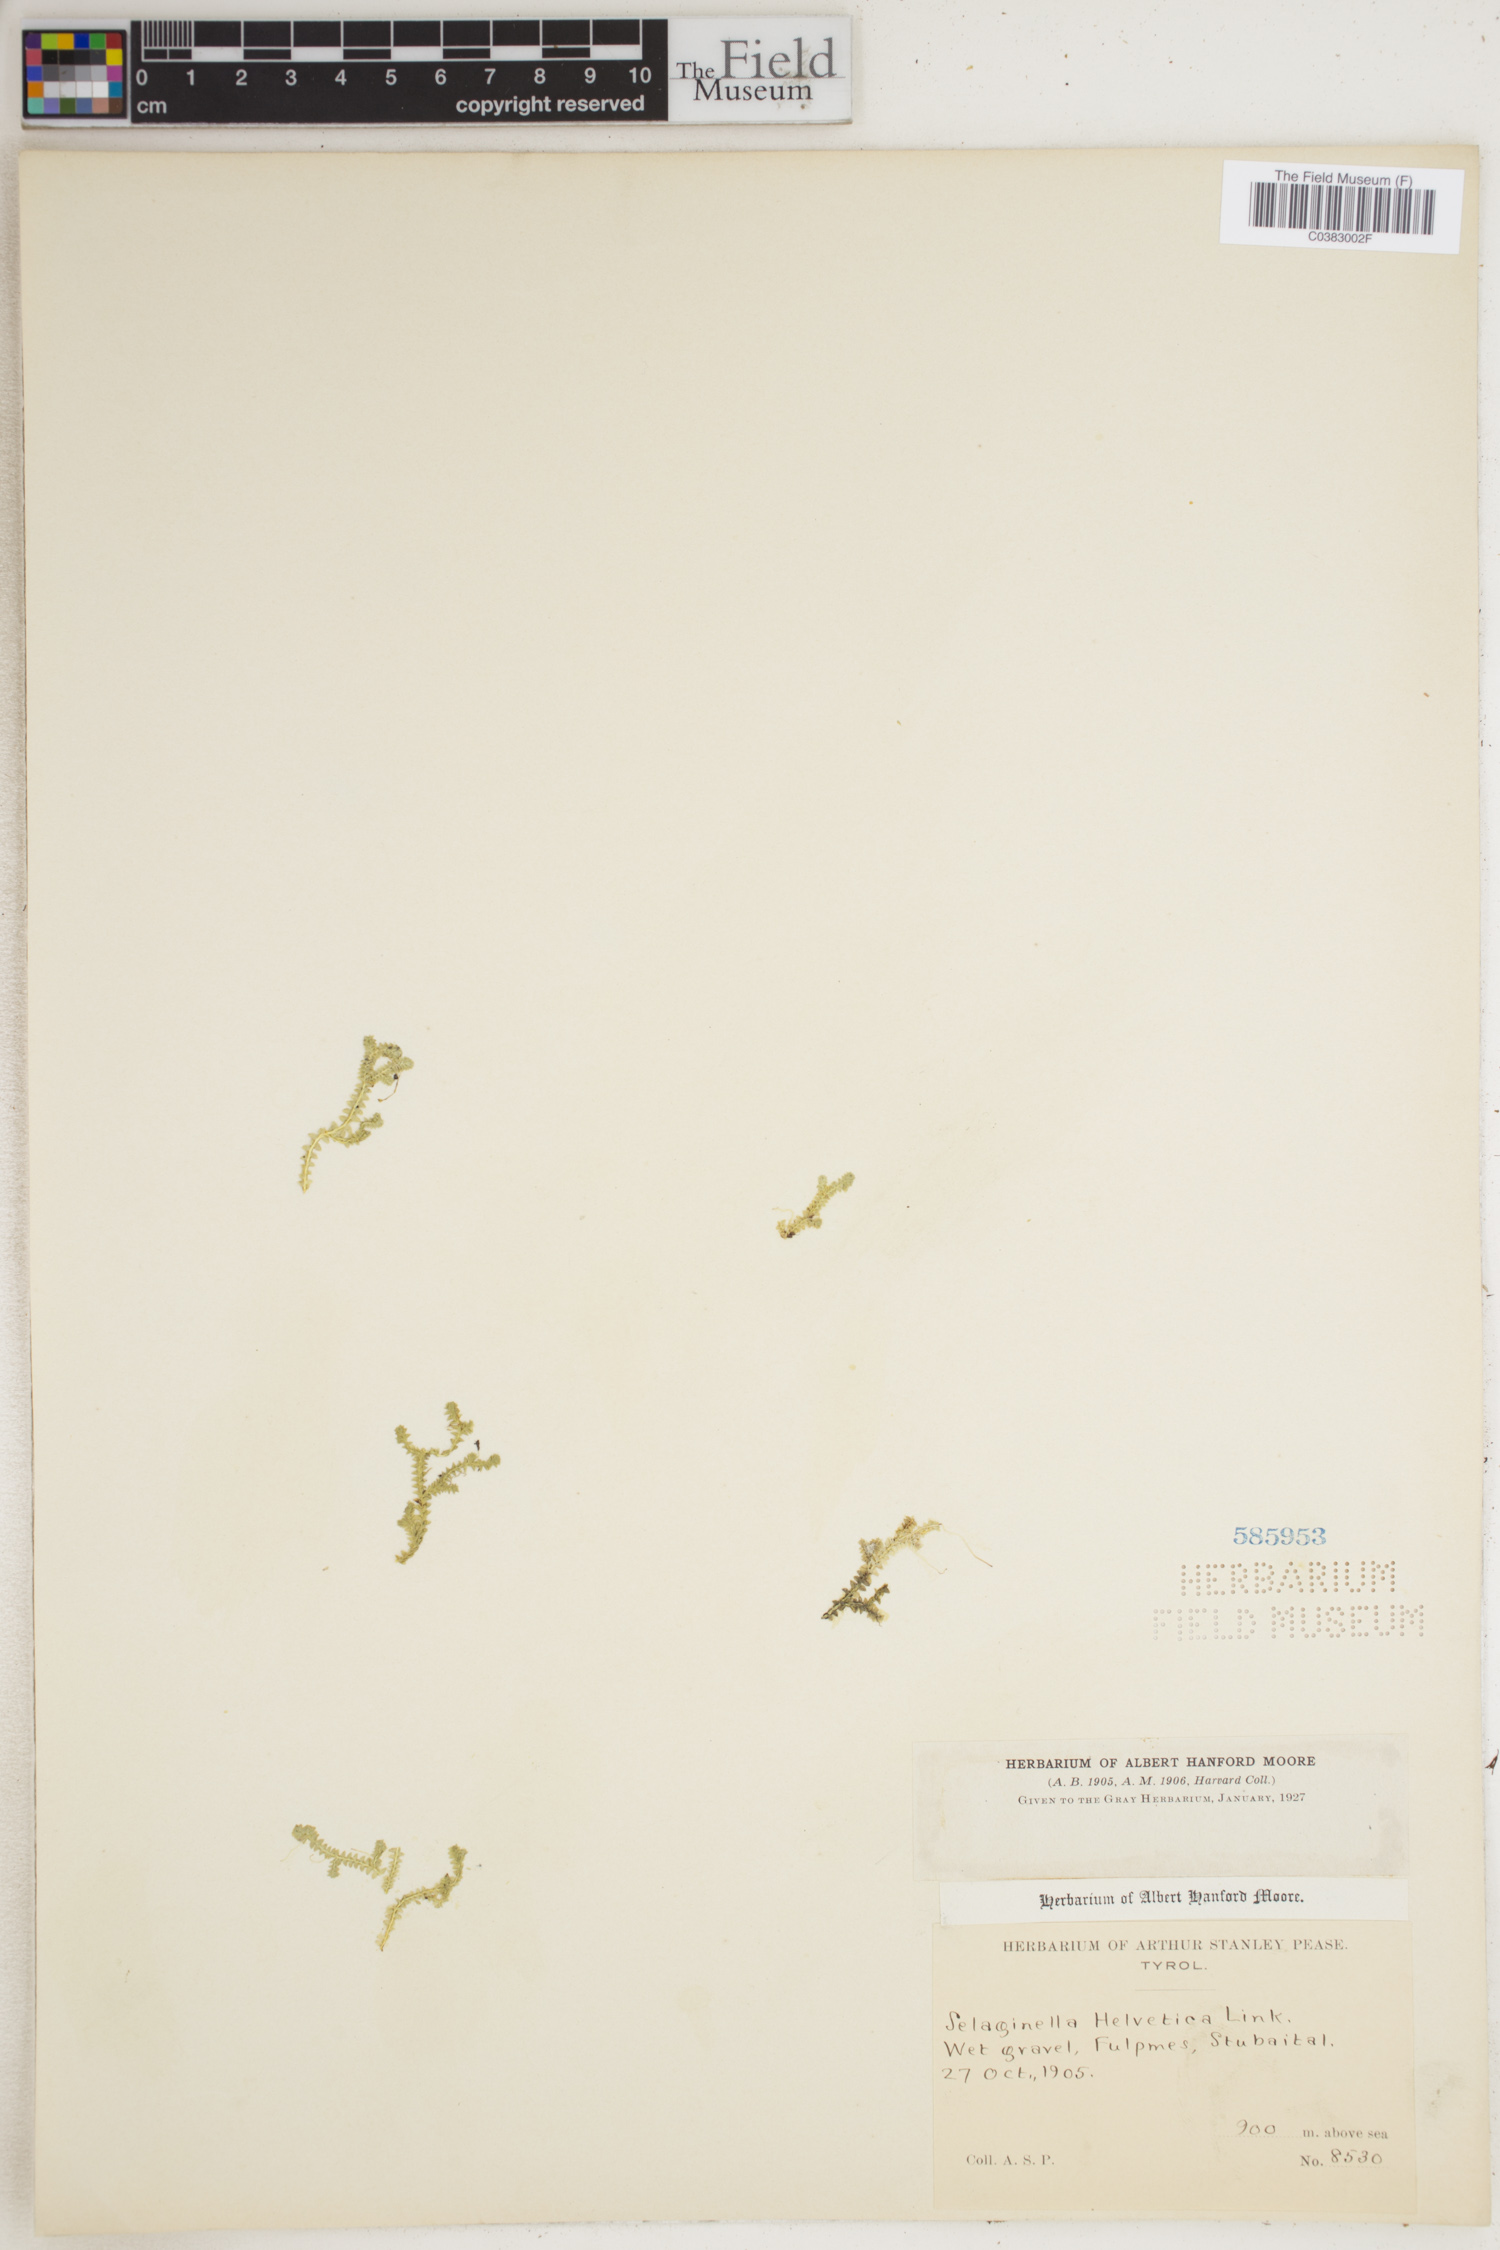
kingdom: Plantae
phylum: Tracheophyta
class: Lycopodiopsida
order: Selaginellales
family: Selaginellaceae
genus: Selaginella
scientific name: Selaginella helvetica
